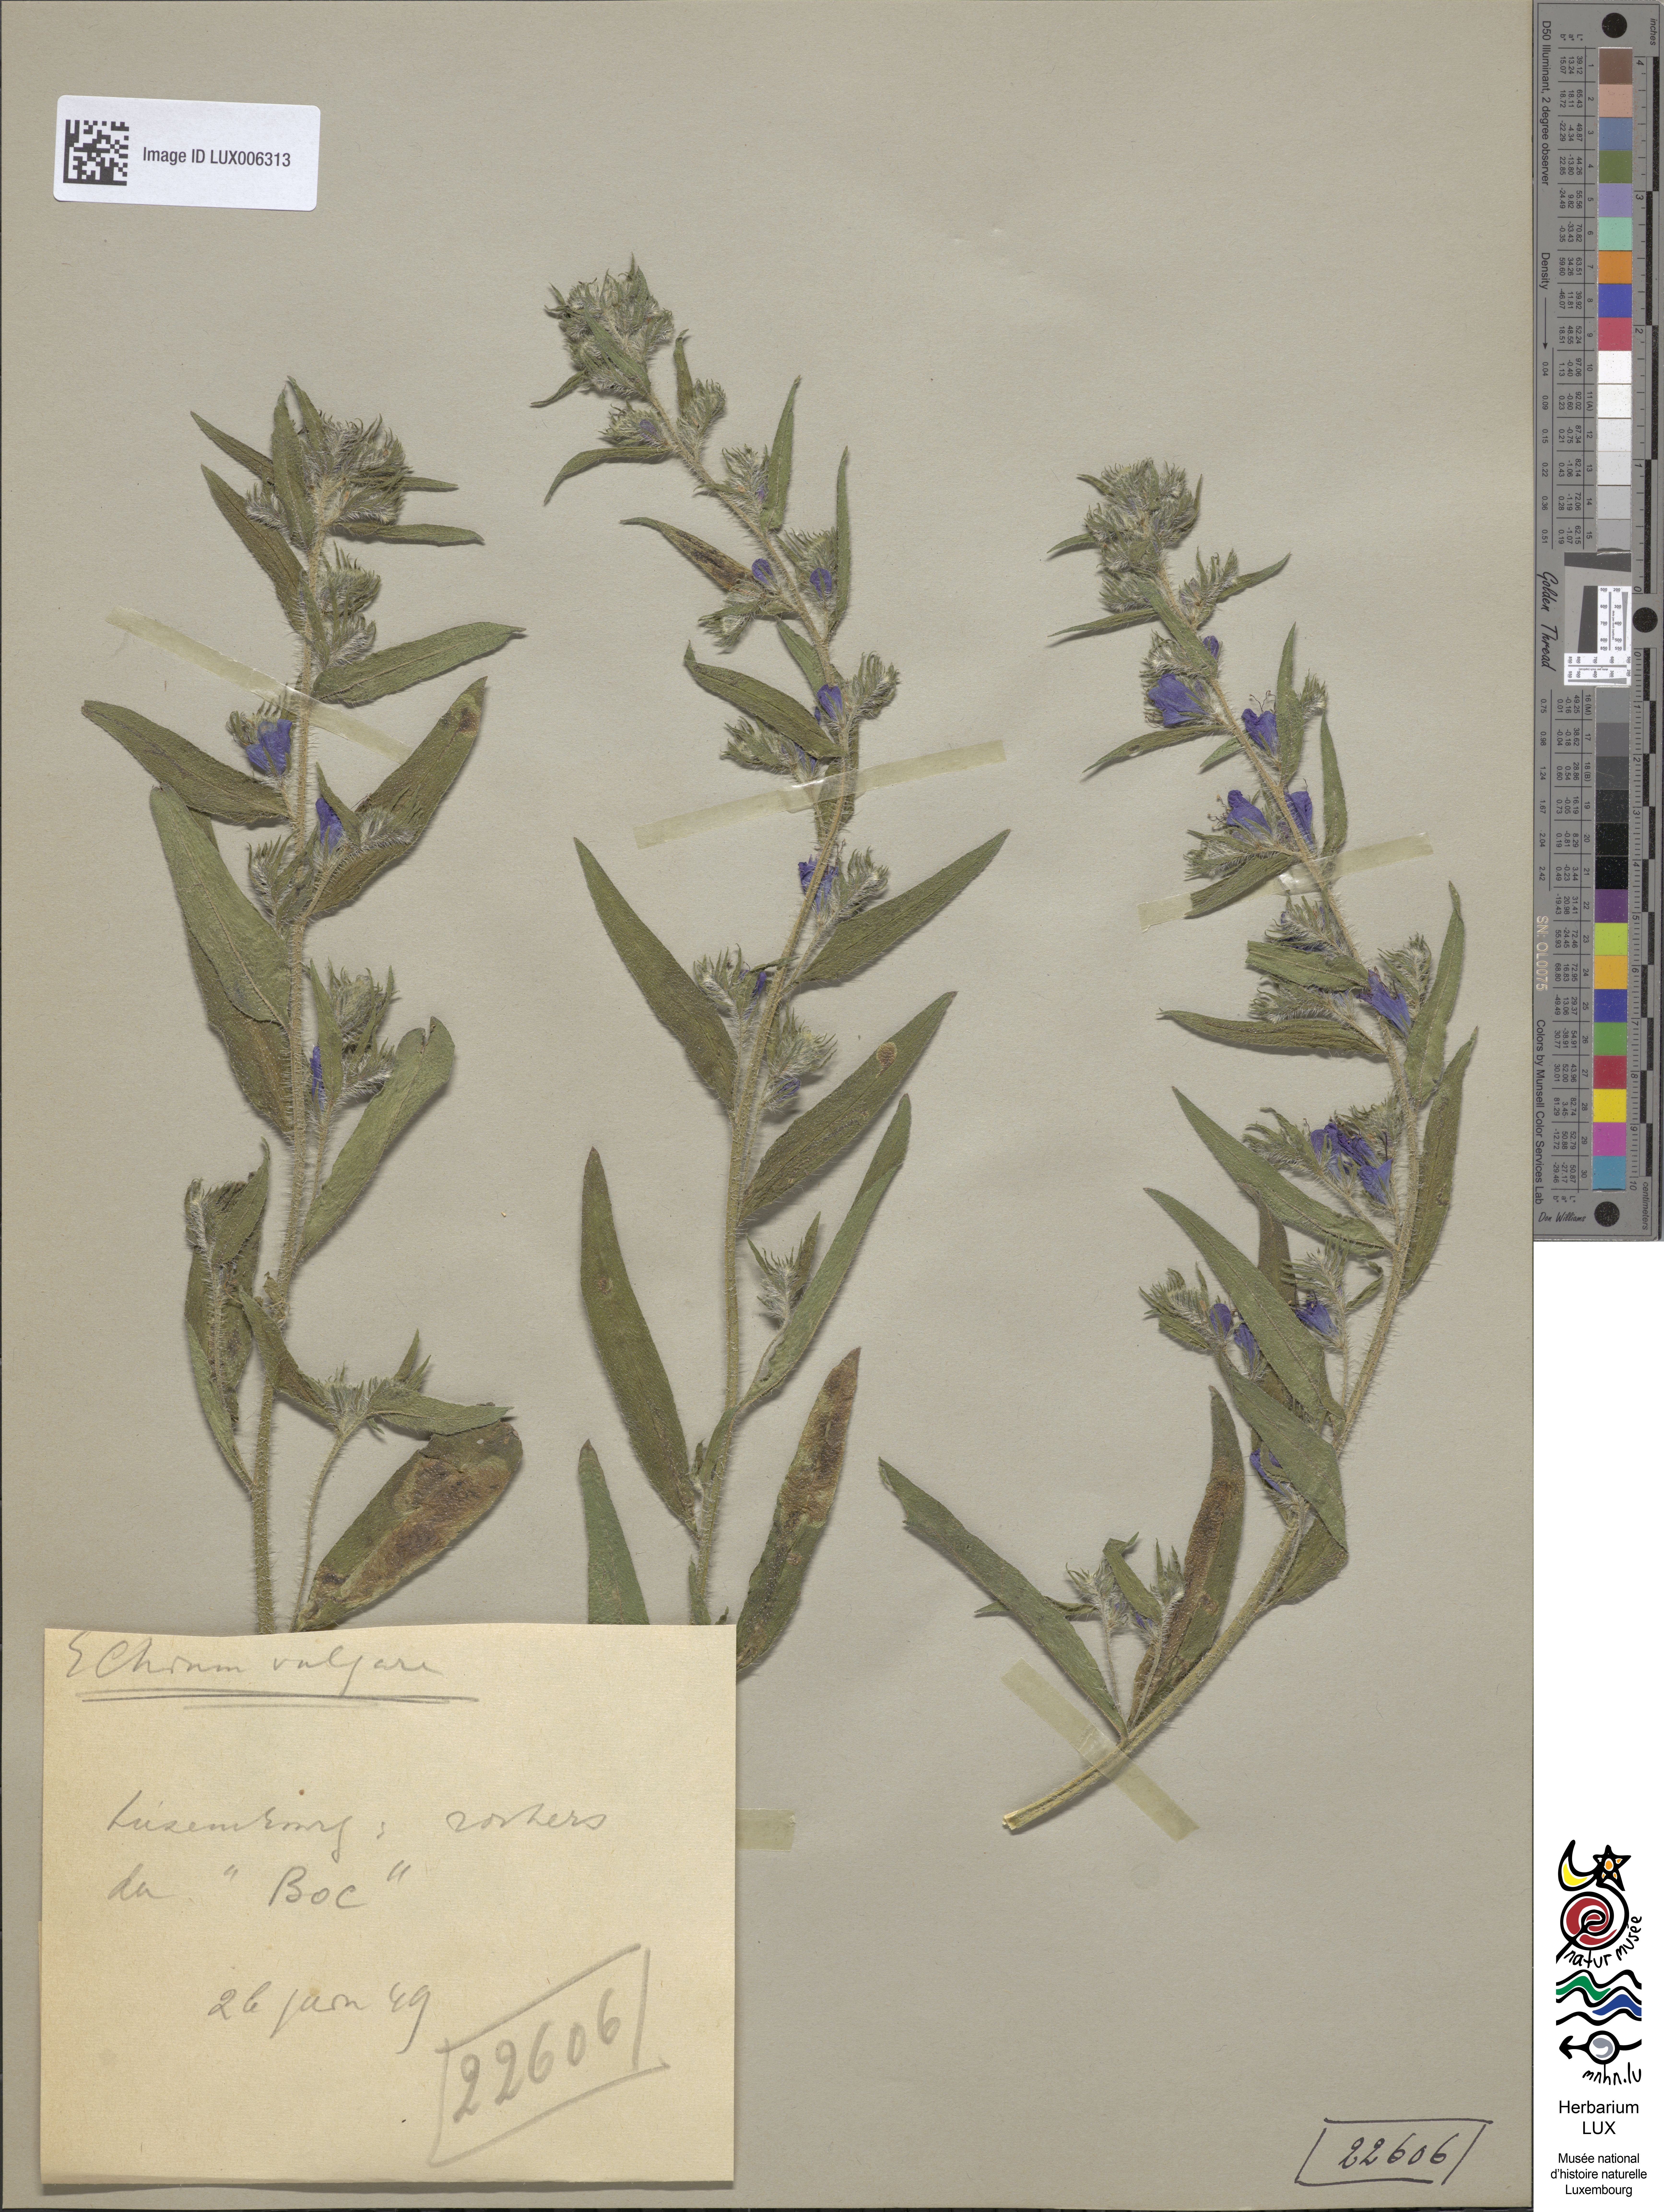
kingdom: Plantae
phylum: Tracheophyta
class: Magnoliopsida
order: Boraginales
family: Boraginaceae
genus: Echium
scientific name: Echium vulgare
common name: Common viper's bugloss
